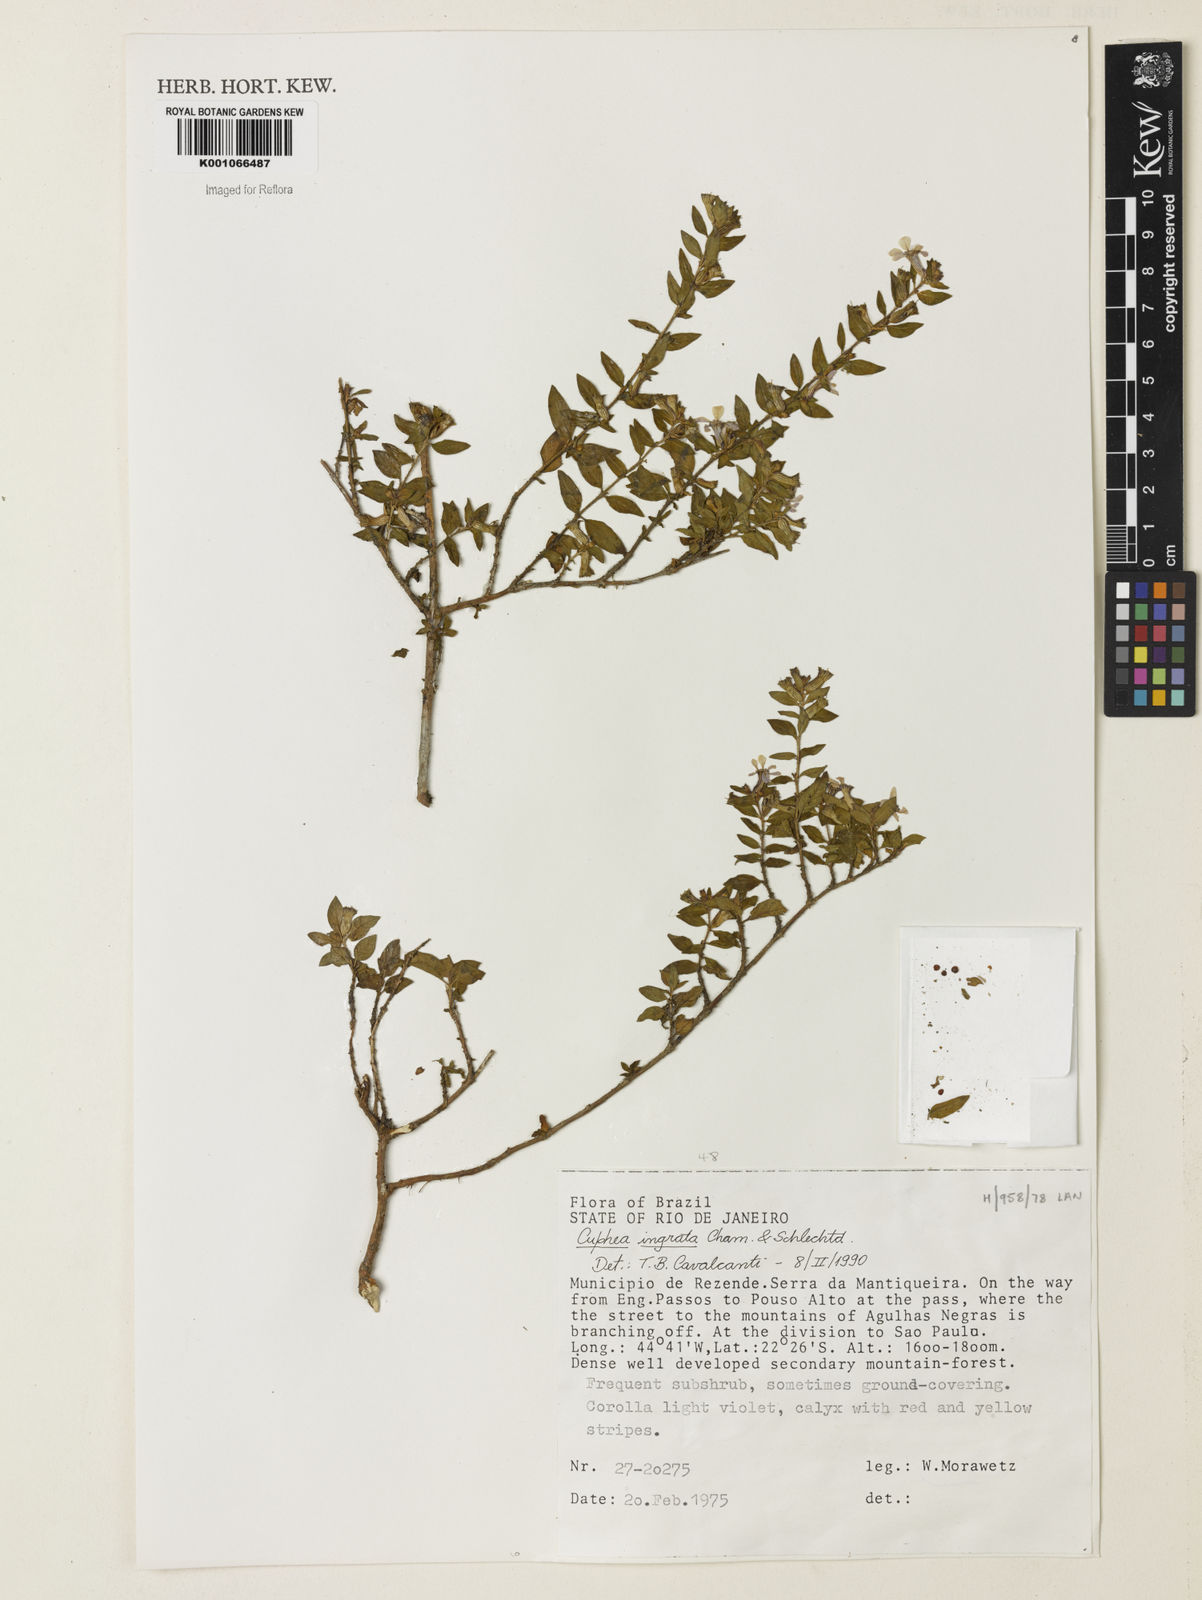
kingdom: Plantae
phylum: Tracheophyta
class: Magnoliopsida
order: Myrtales
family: Lythraceae
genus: Cuphea
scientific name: Cuphea ingrata
